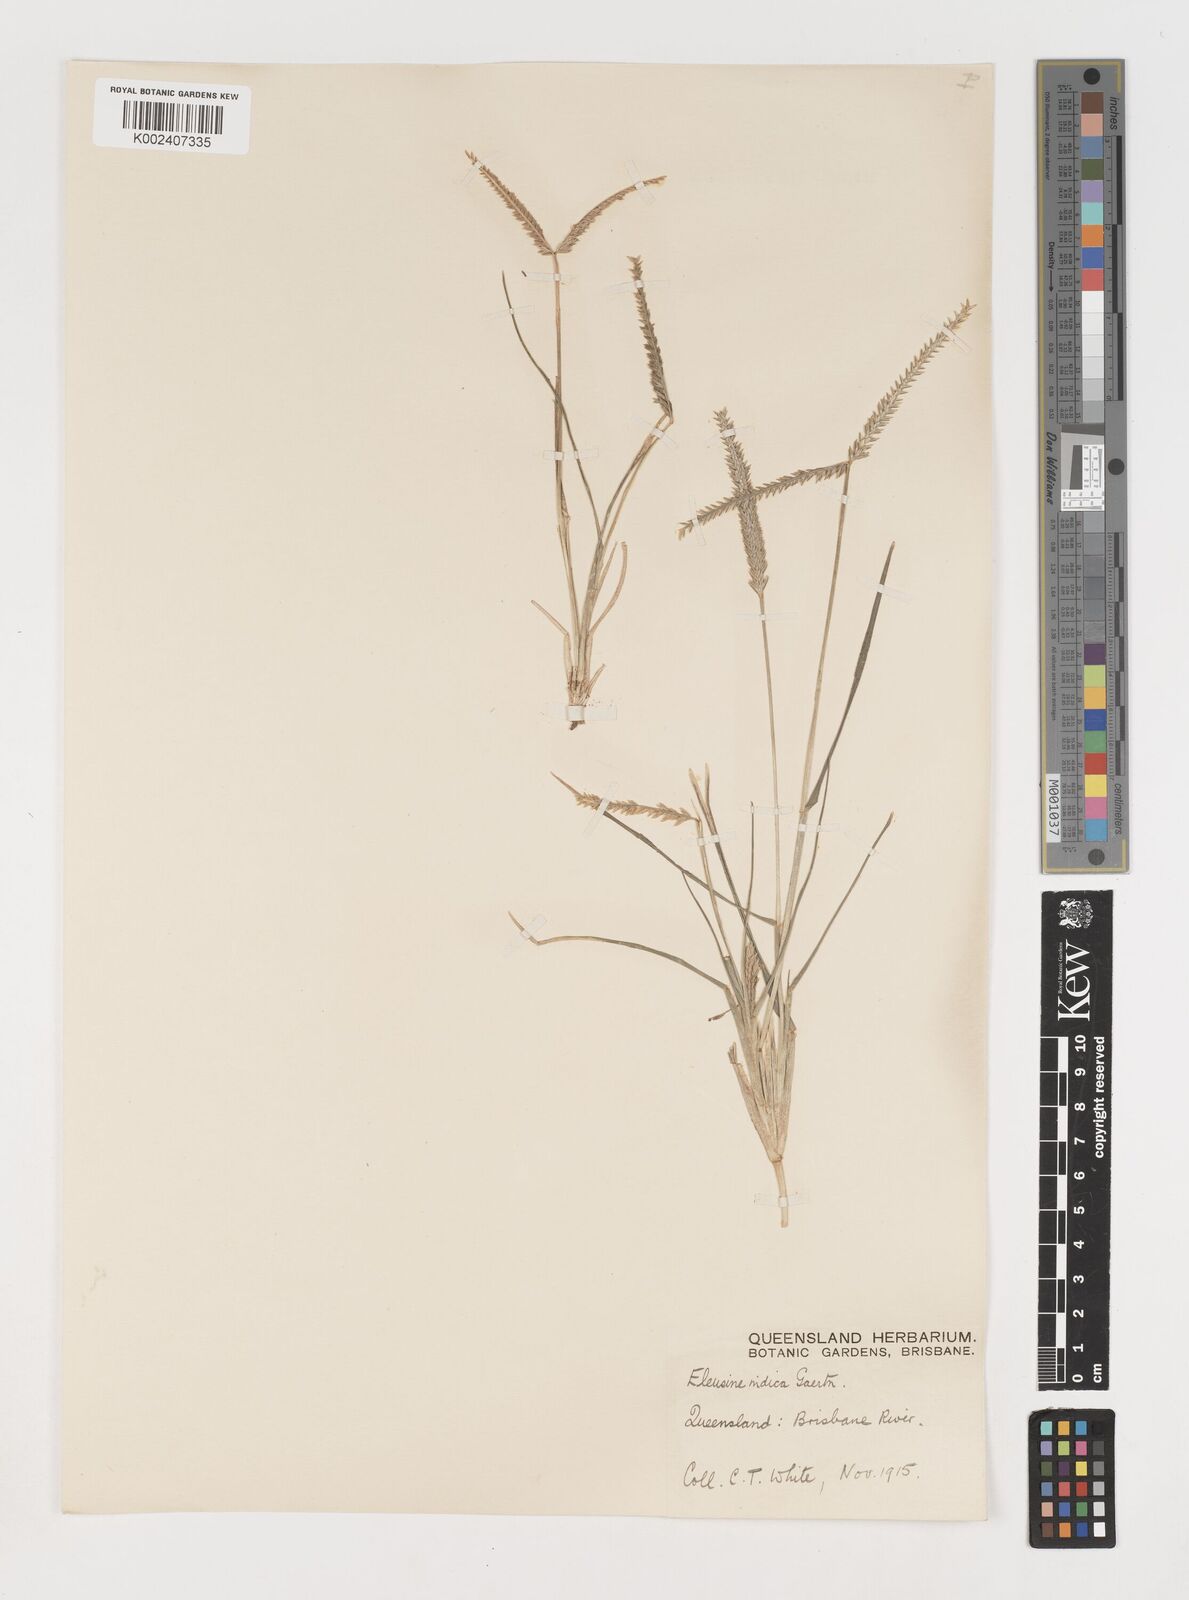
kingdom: Plantae
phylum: Tracheophyta
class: Liliopsida
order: Poales
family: Poaceae
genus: Eleusine
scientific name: Eleusine indica
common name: Yard-grass
